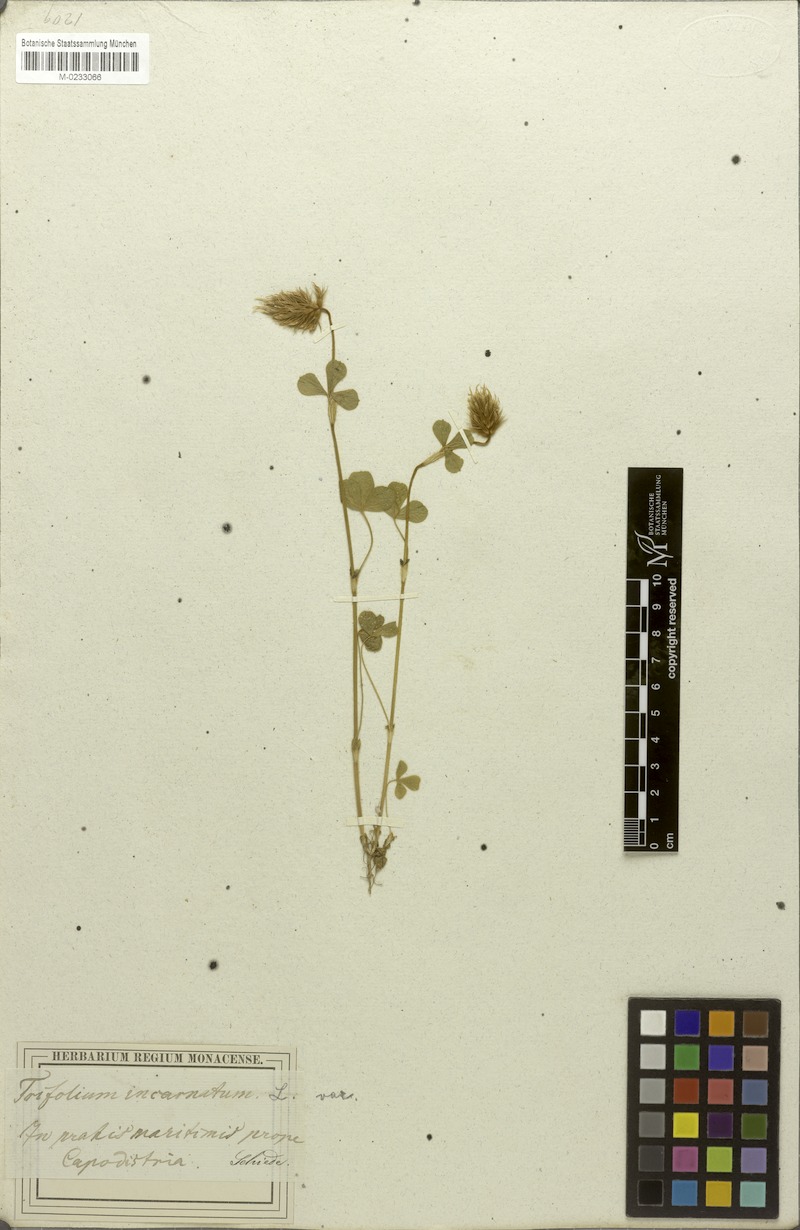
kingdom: Plantae
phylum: Tracheophyta
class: Magnoliopsida
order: Fabales
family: Fabaceae
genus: Trifolium
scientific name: Trifolium incarnatum
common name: Crimson clover
